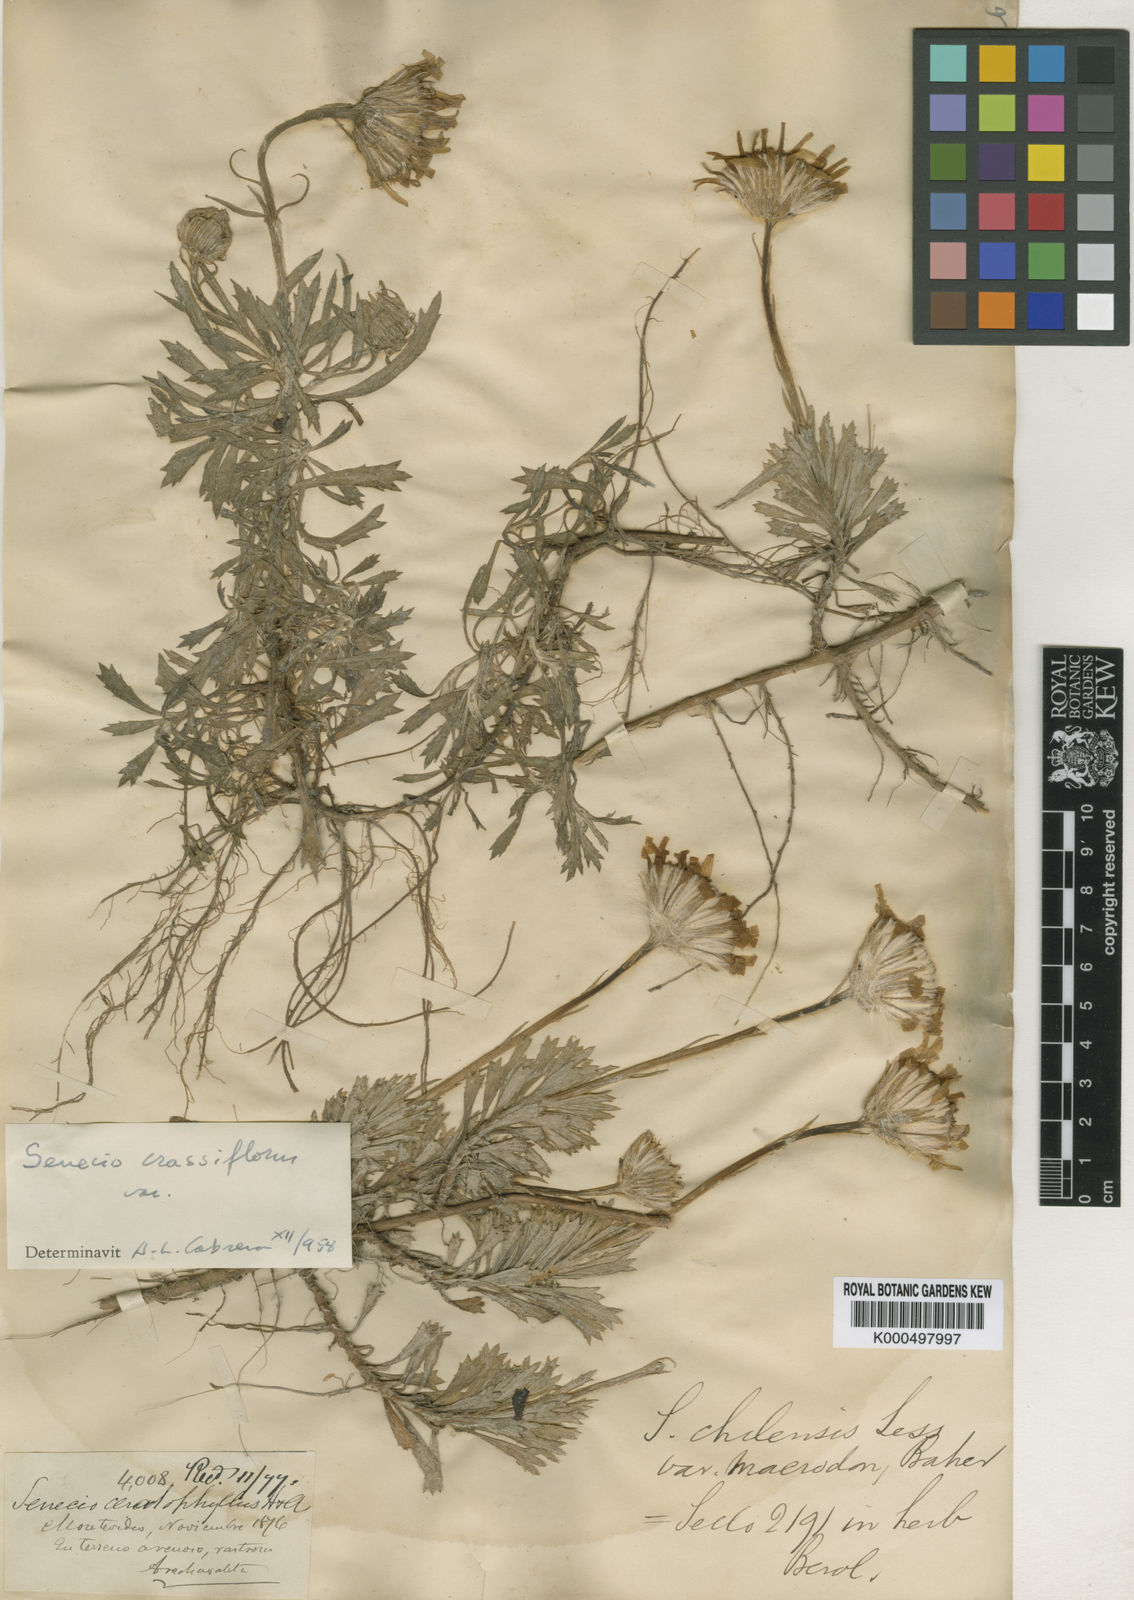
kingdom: Plantae
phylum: Tracheophyta
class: Magnoliopsida
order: Asterales
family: Asteraceae
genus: Senecio
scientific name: Senecio montevidensis
